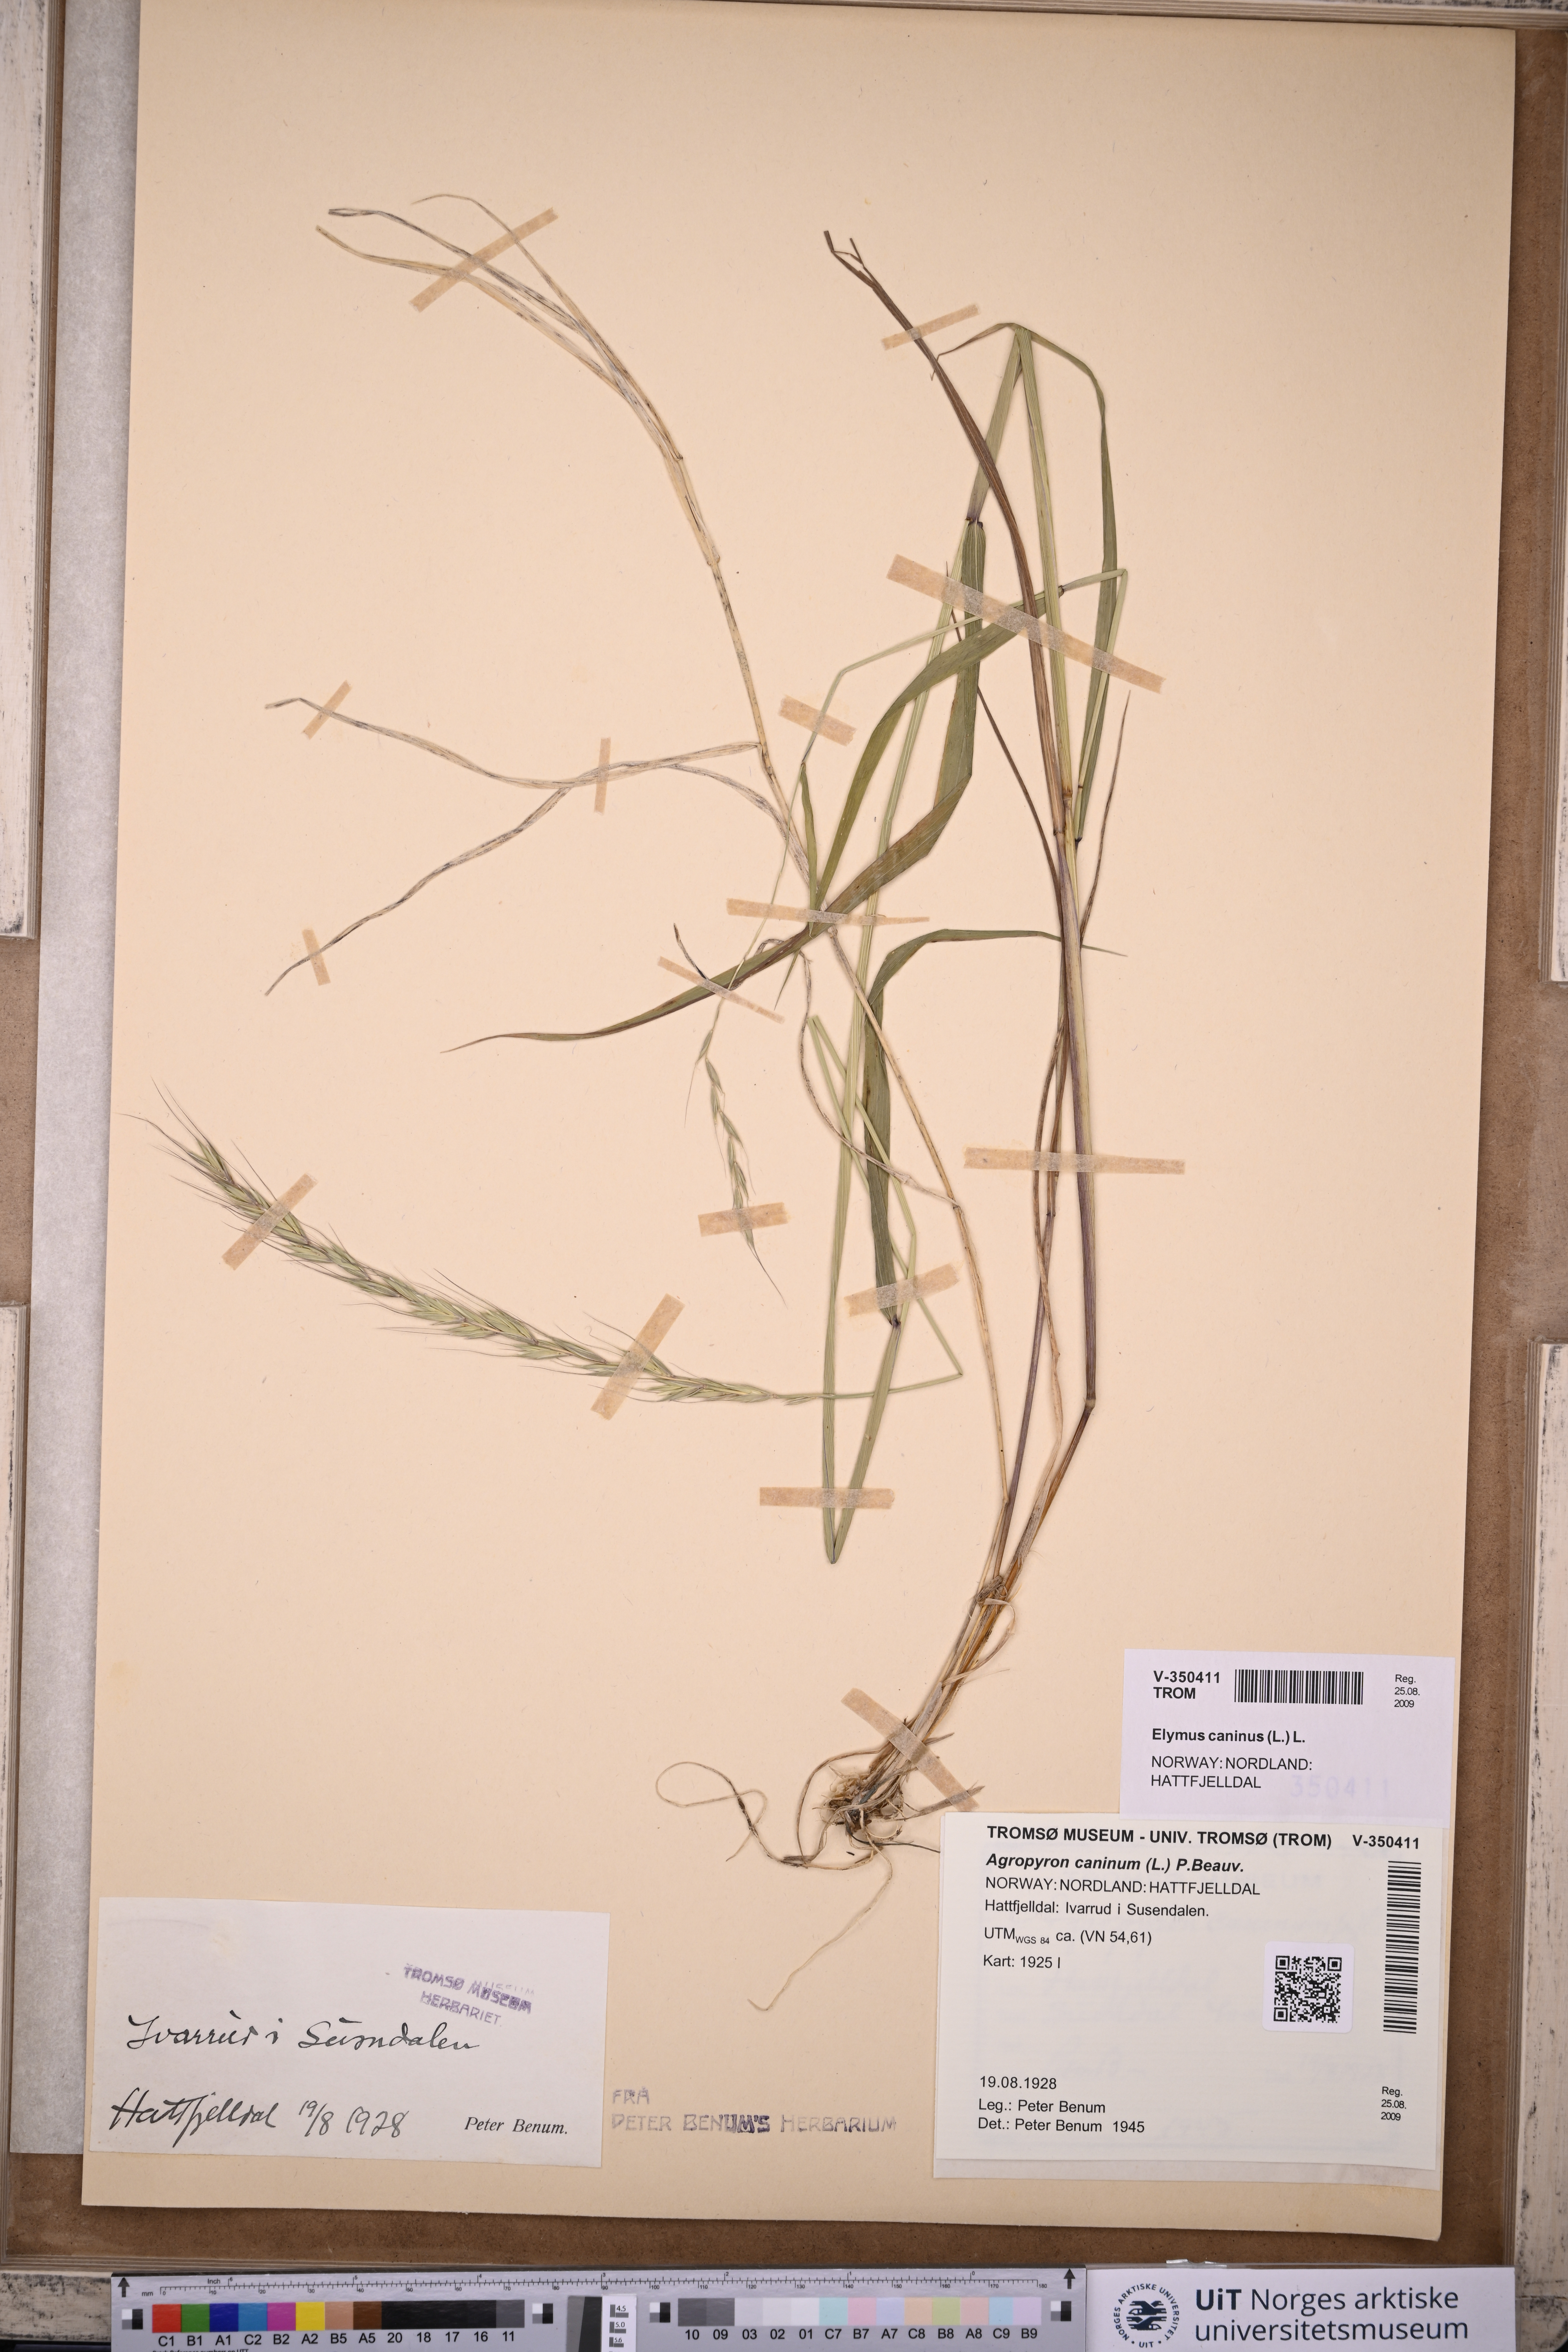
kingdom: Plantae
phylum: Tracheophyta
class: Liliopsida
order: Poales
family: Poaceae
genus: Elymus
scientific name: Elymus caninus
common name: Bearded couch
